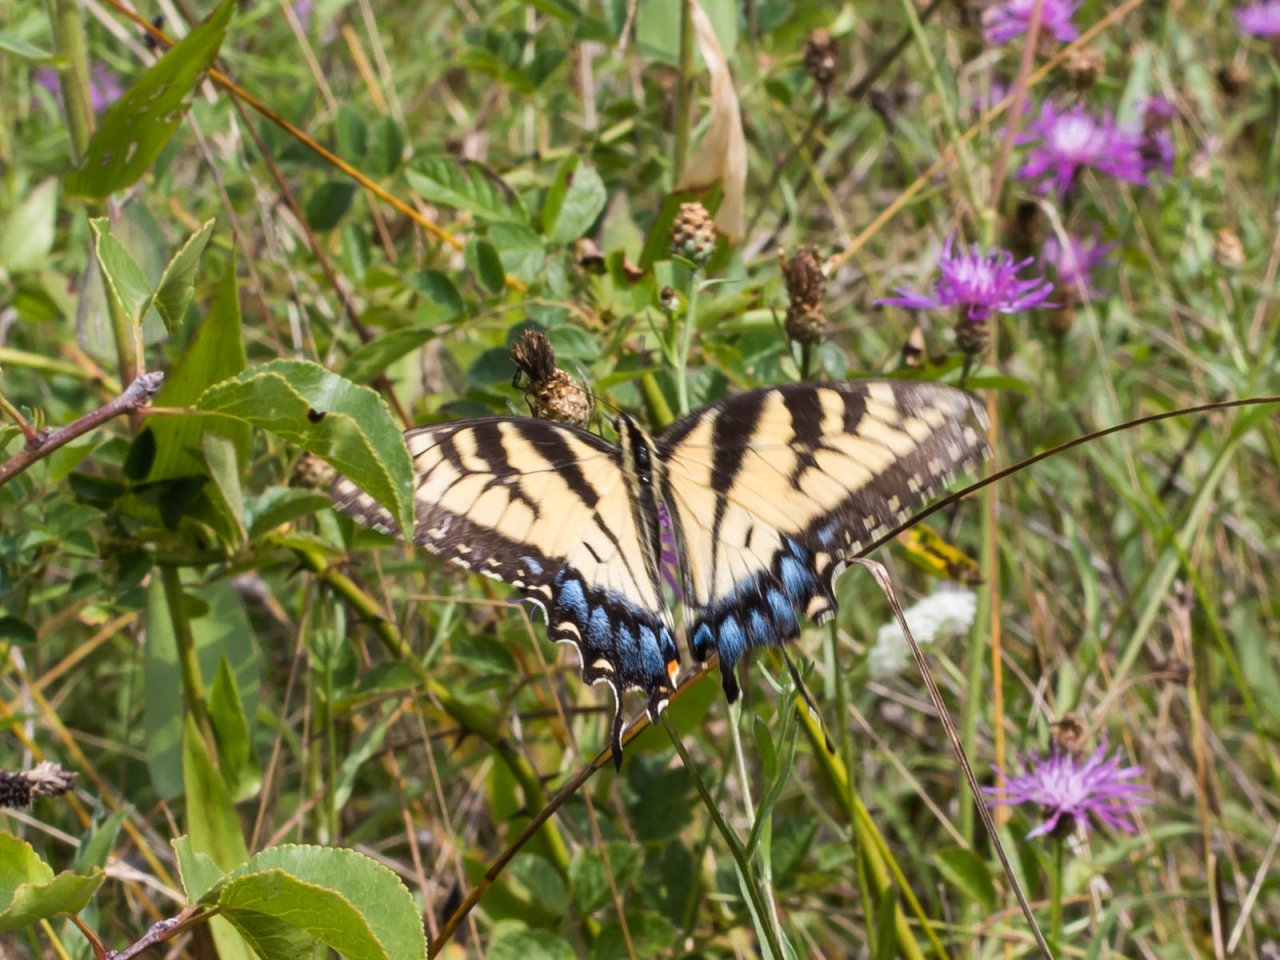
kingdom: Animalia
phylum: Arthropoda
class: Insecta
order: Lepidoptera
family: Papilionidae
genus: Pterourus
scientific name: Pterourus glaucus
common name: Eastern Tiger Swallowtail
